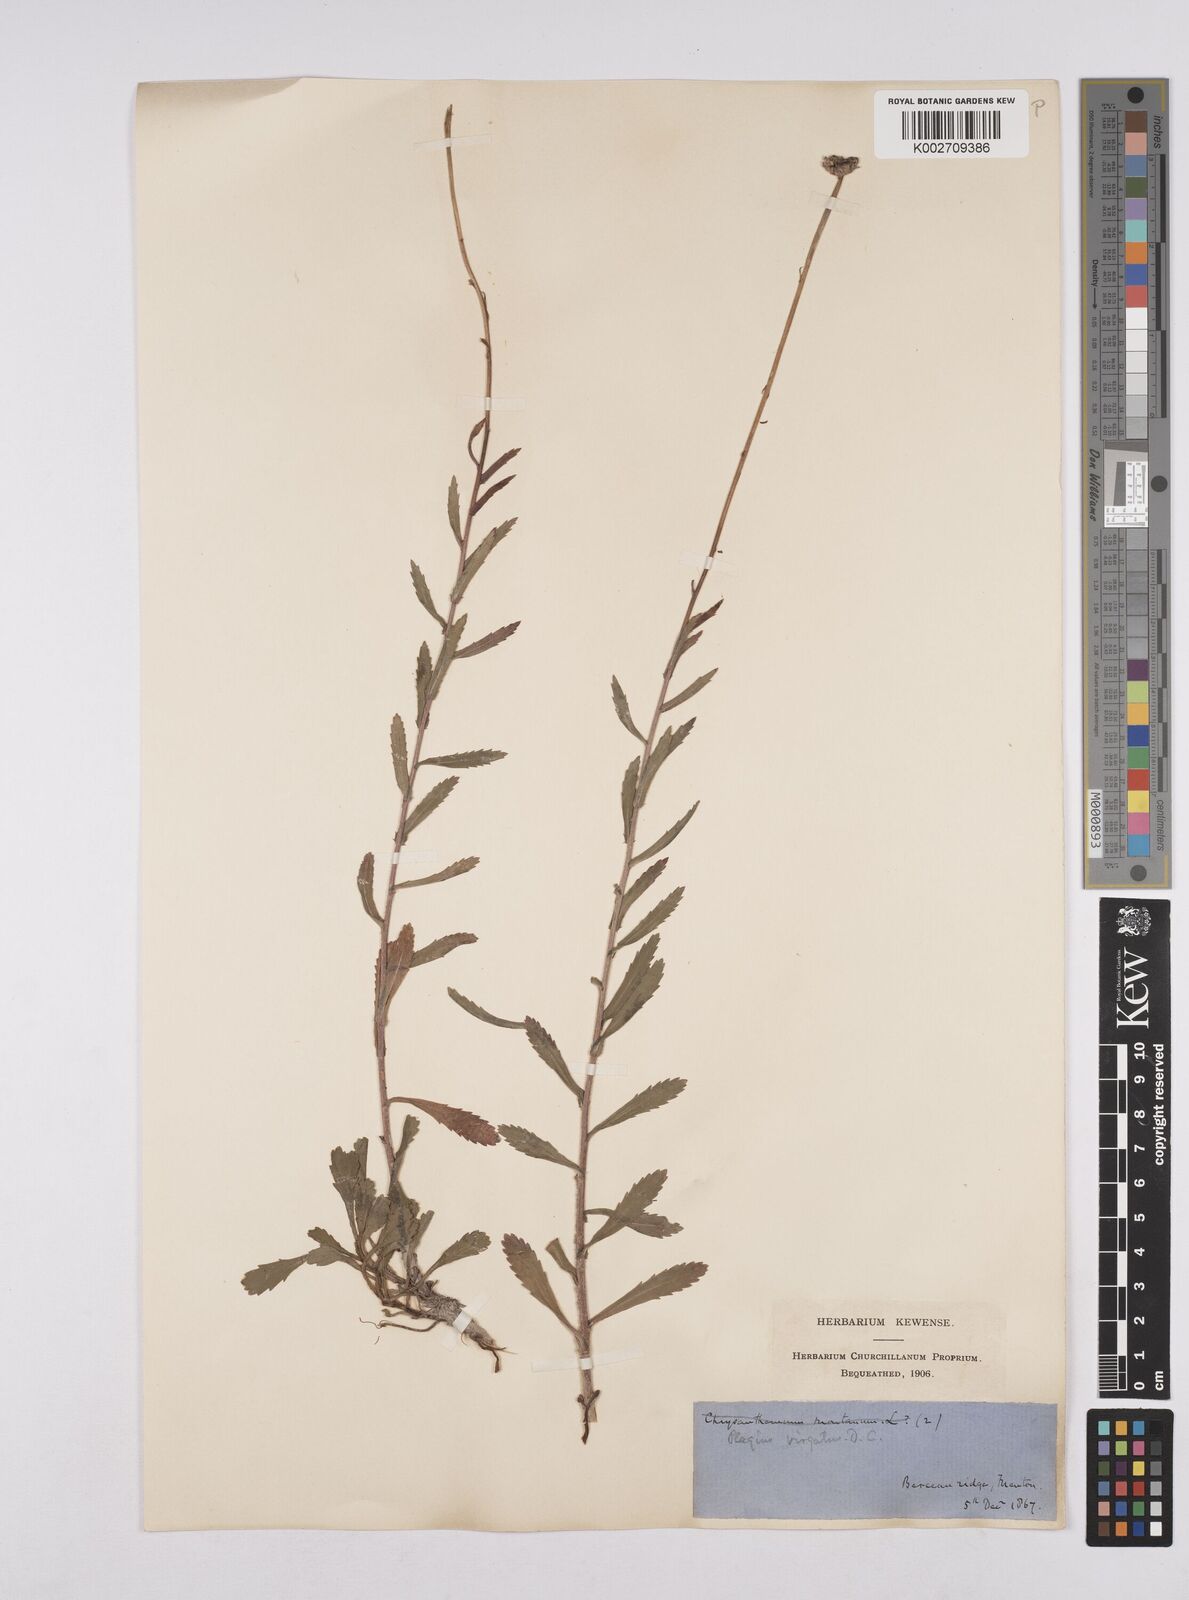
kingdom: Plantae
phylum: Tracheophyta
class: Magnoliopsida
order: Asterales
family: Asteraceae
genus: Leucanthemum
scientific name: Leucanthemum vulgare
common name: Oxeye daisy
